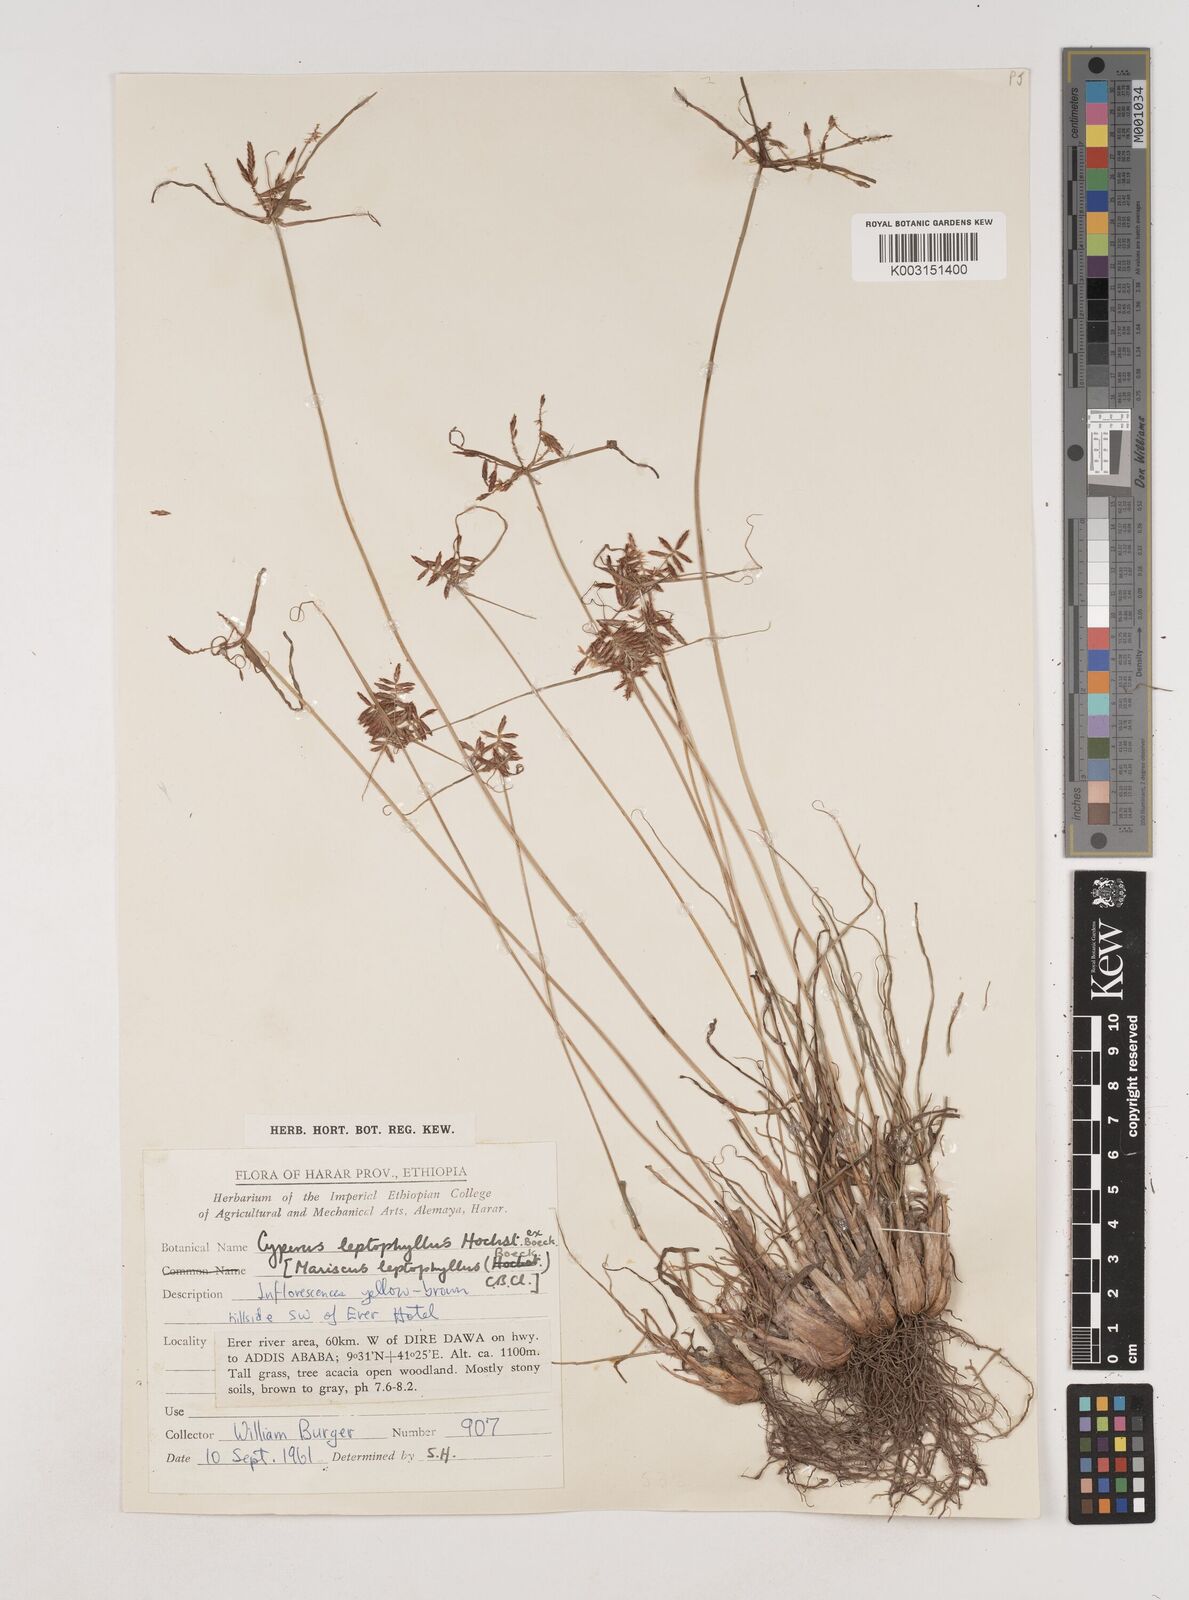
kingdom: Plantae
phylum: Tracheophyta
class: Liliopsida
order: Poales
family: Cyperaceae
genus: Cyperus
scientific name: Cyperus amauropus
